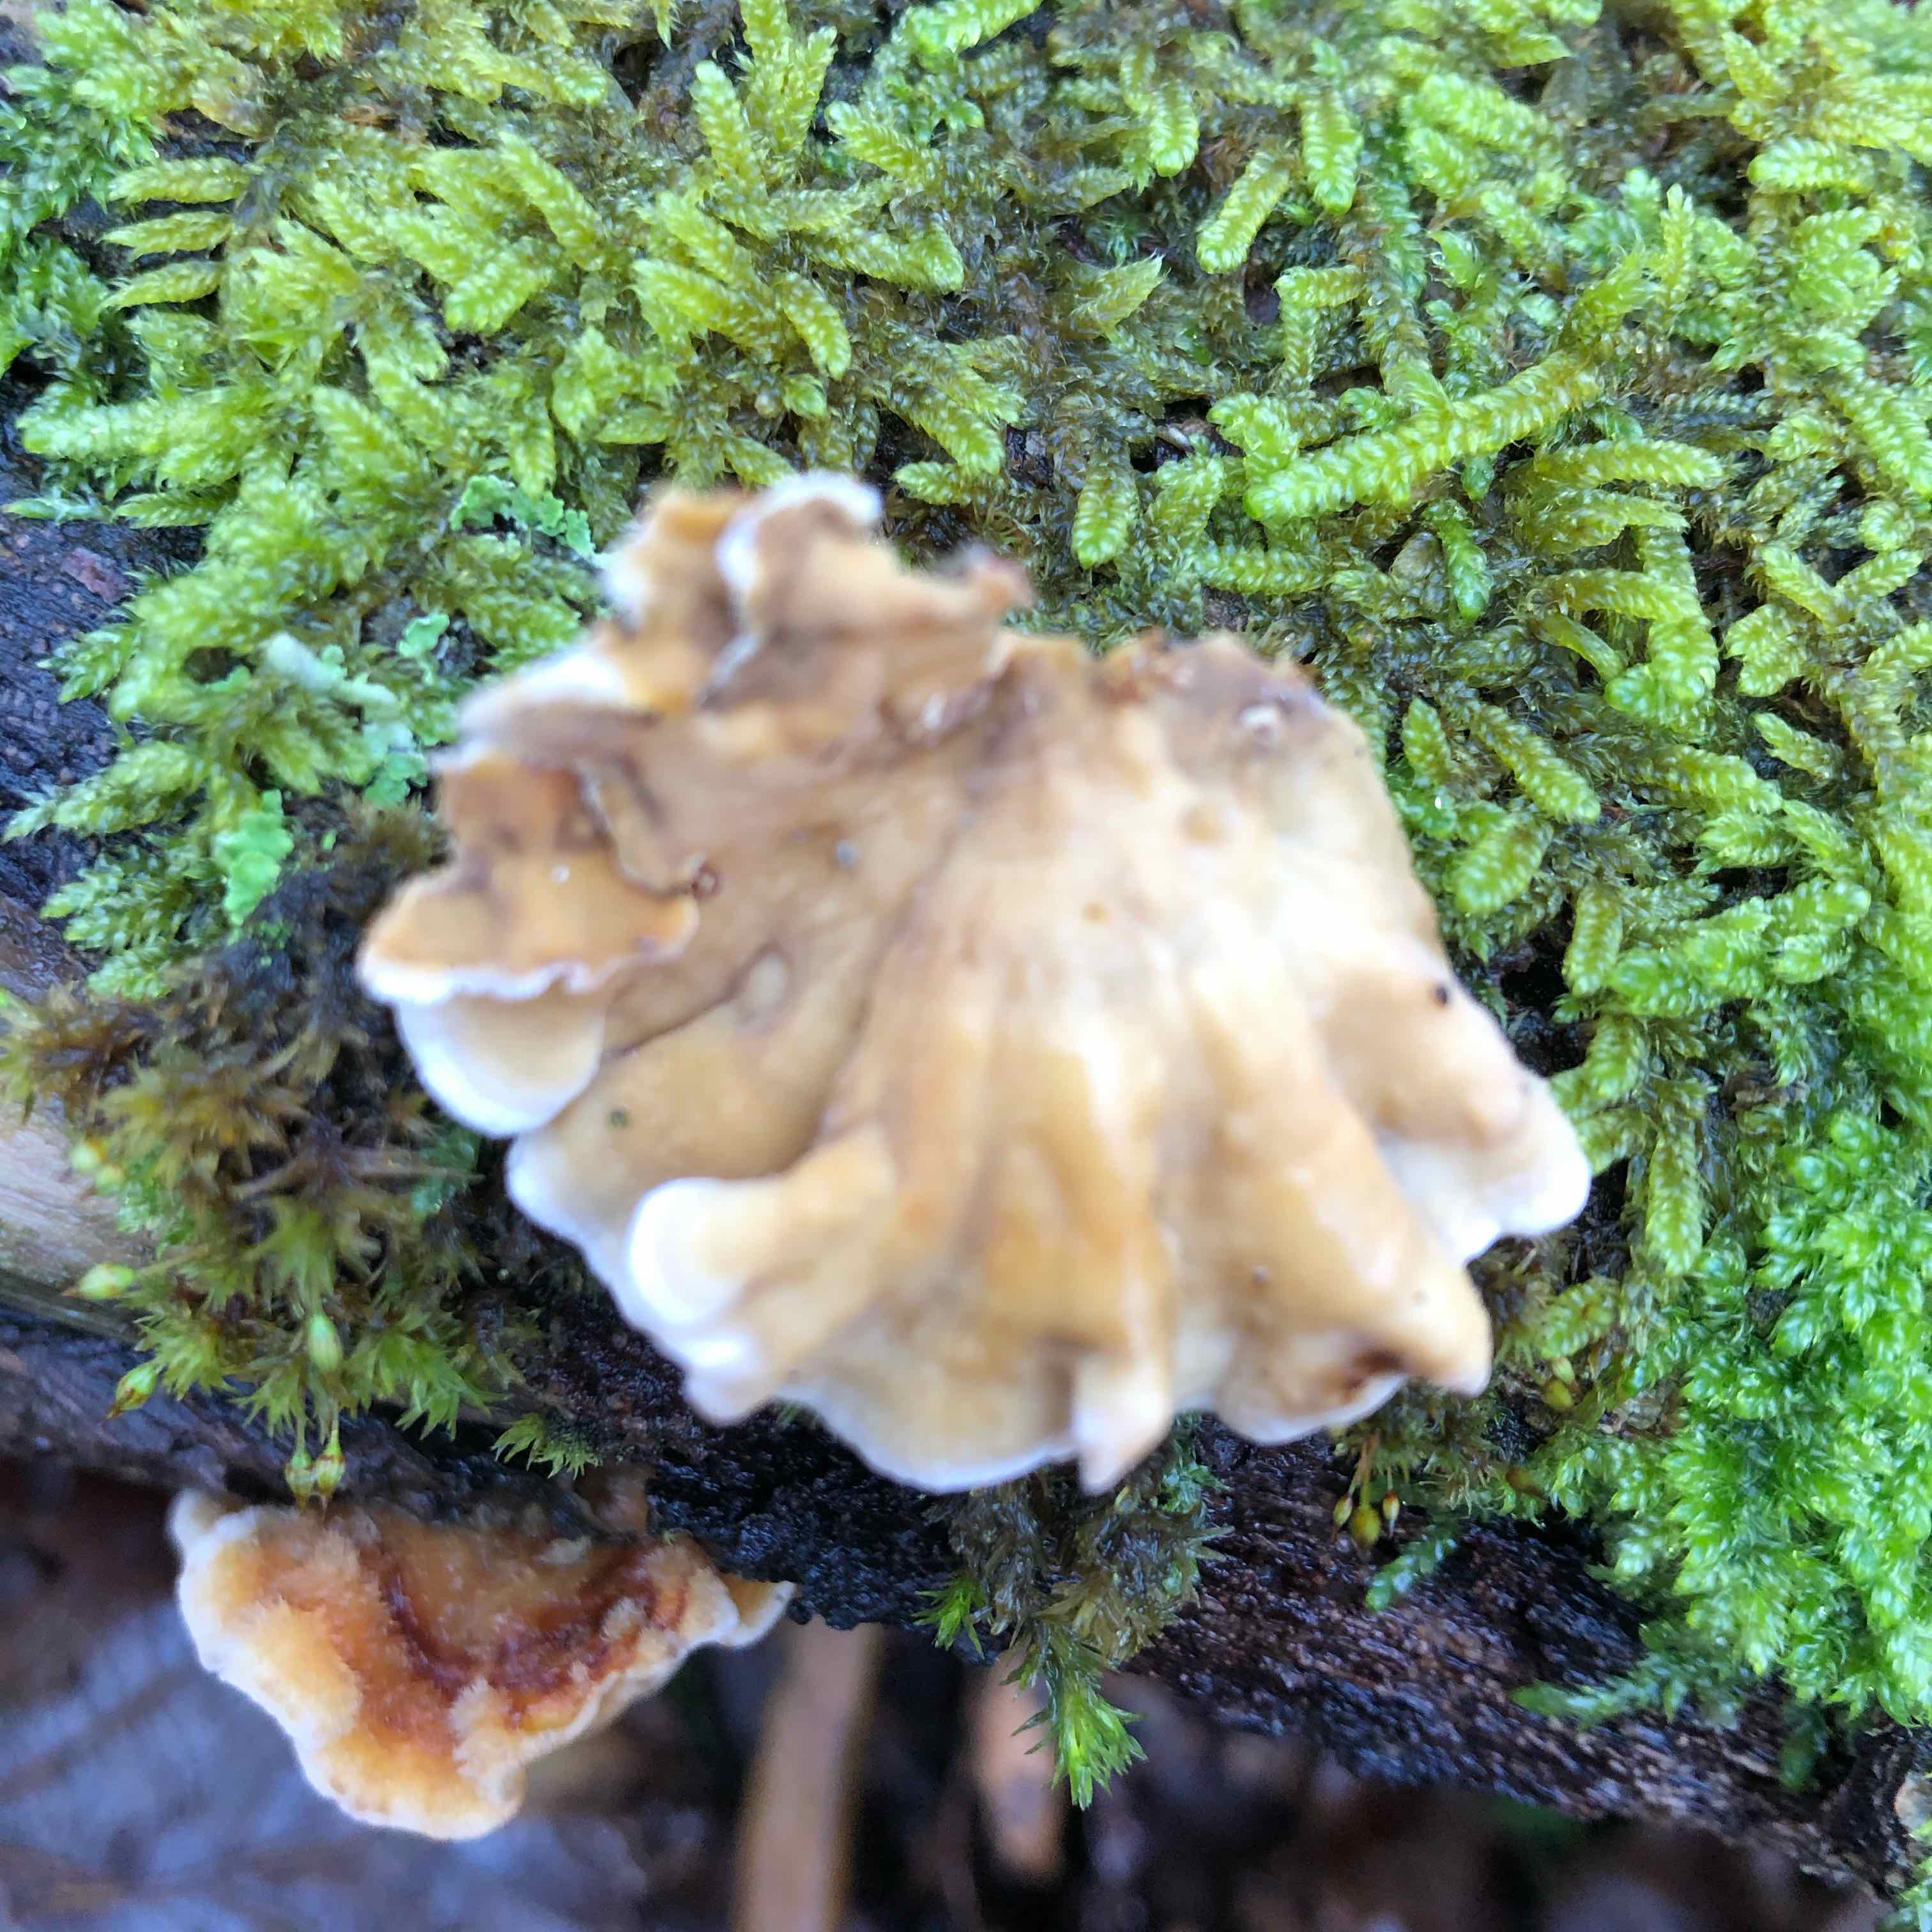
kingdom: Fungi
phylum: Basidiomycota
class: Agaricomycetes
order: Russulales
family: Stereaceae
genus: Stereum
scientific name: Stereum hirsutum
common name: håret lædersvamp
